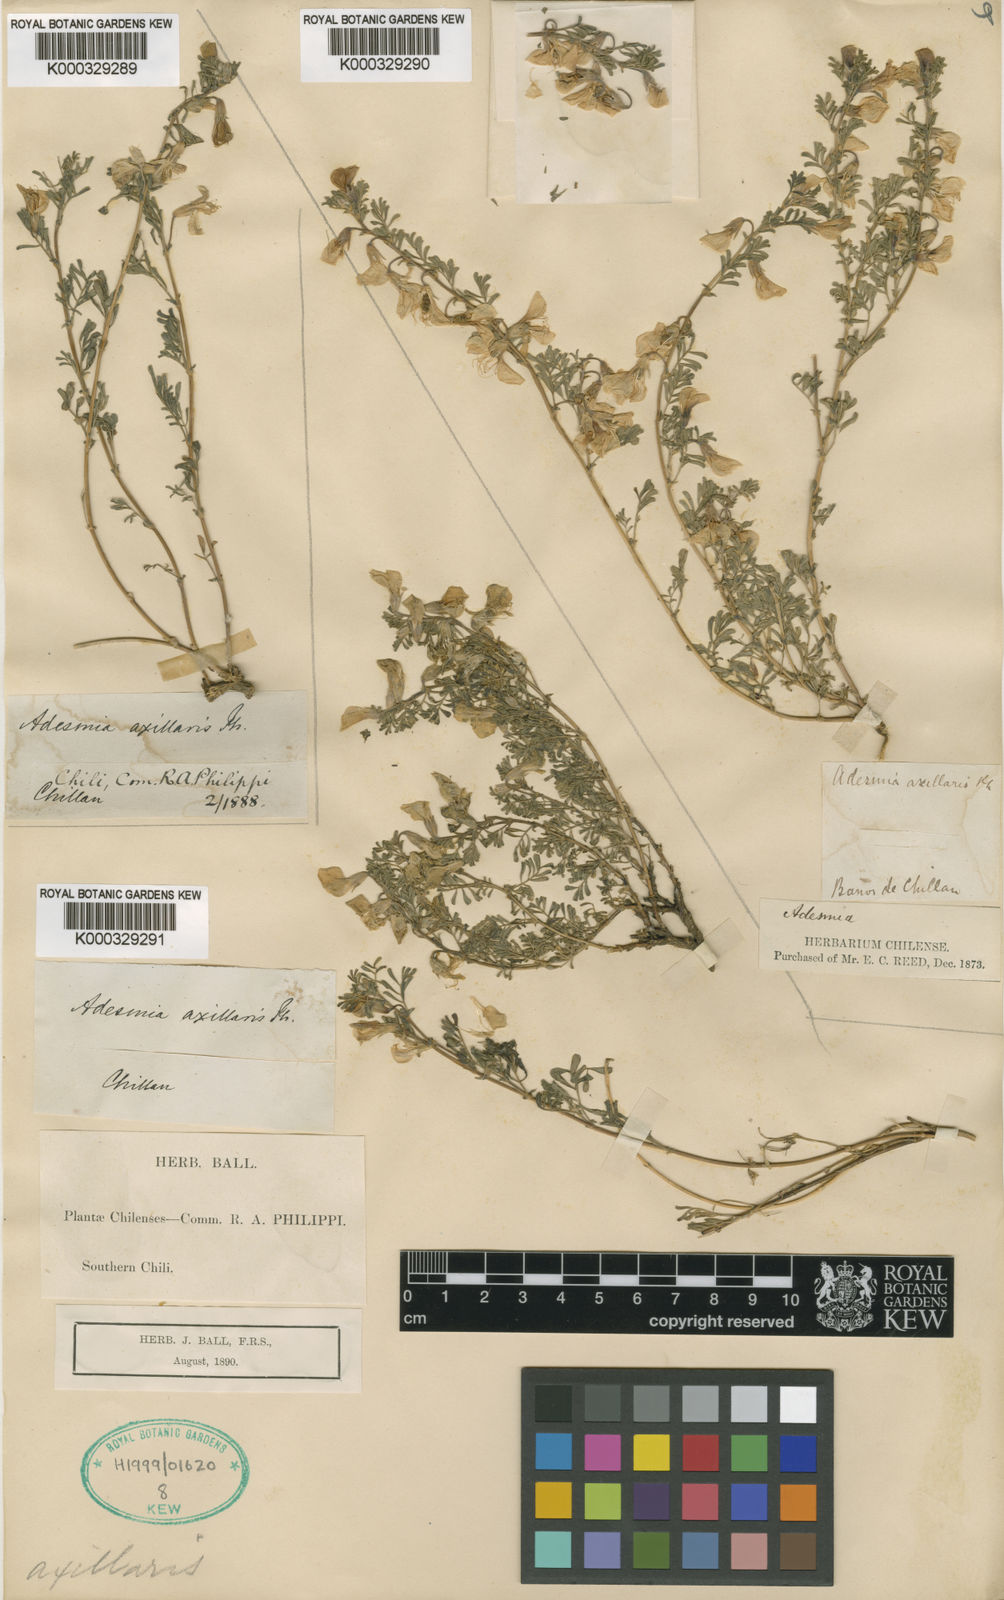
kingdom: Plantae
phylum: Tracheophyta
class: Magnoliopsida
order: Fabales
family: Fabaceae
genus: Adesmia
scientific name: Adesmia parvifolia
